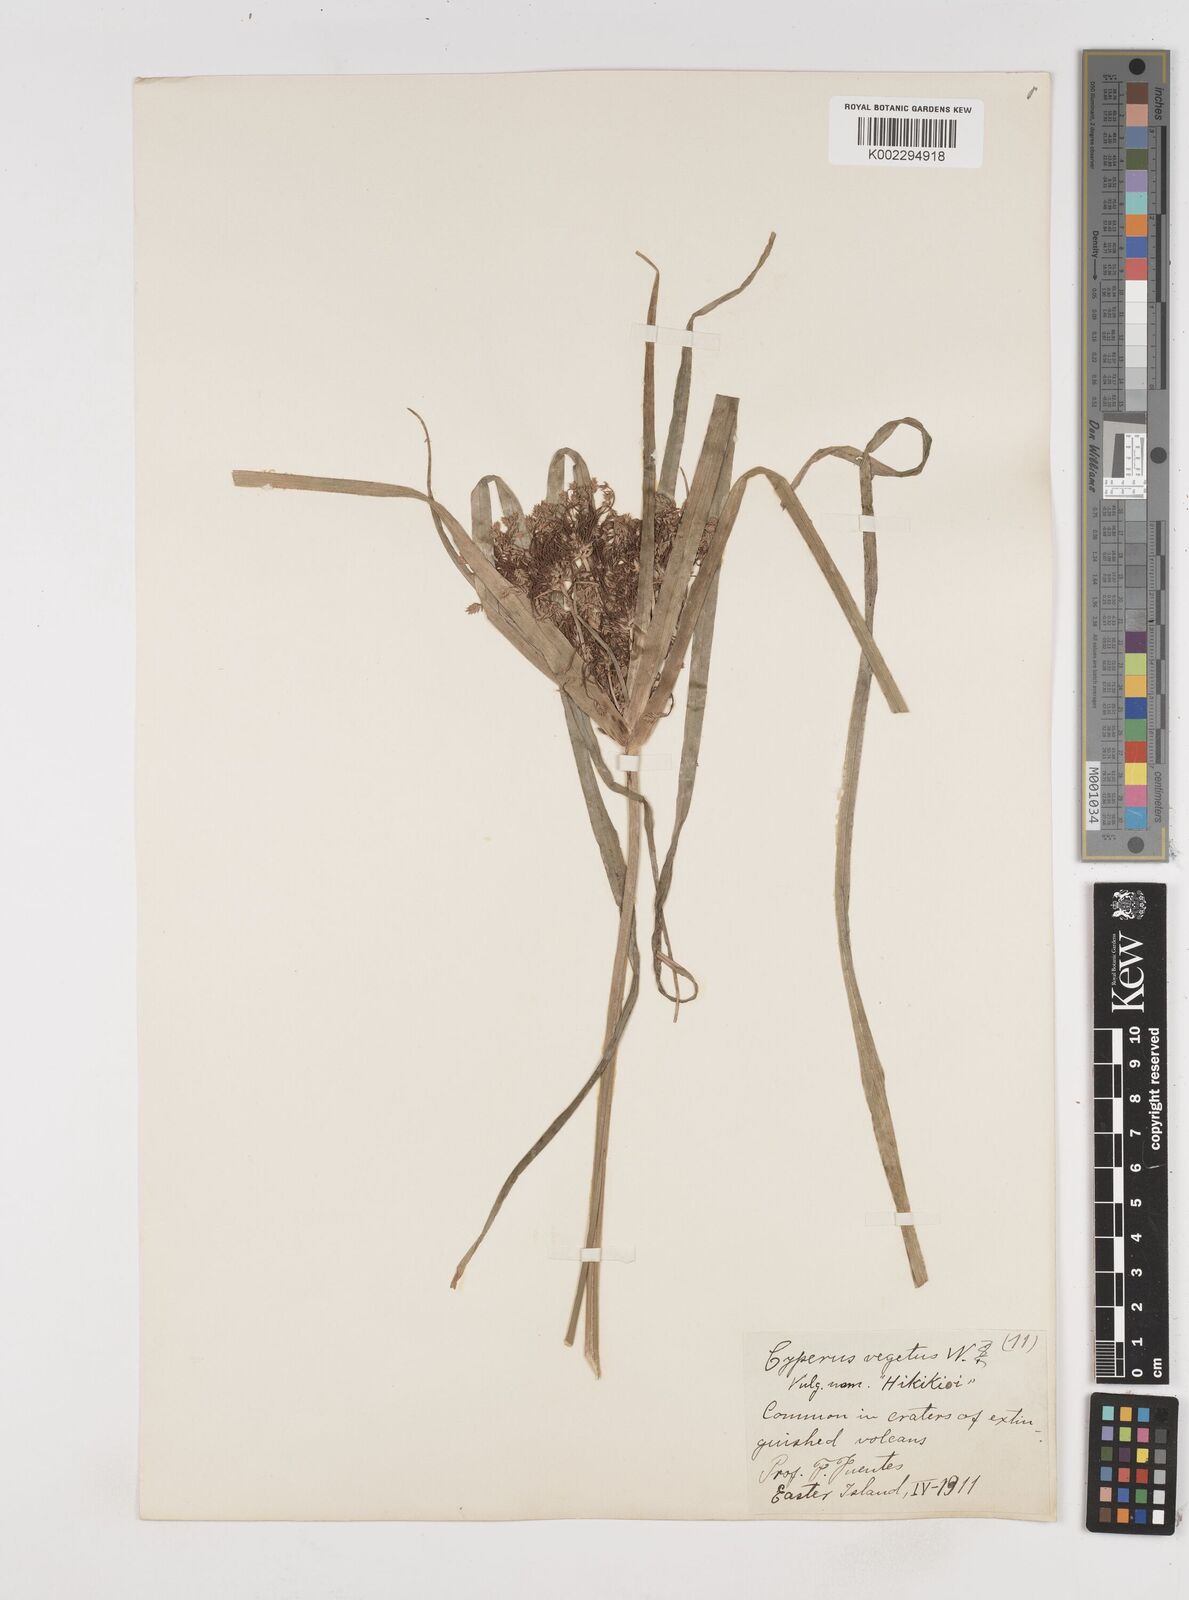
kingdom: Plantae
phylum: Tracheophyta
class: Liliopsida
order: Poales
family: Cyperaceae
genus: Cyperus
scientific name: Cyperus eragrostis
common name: Tall flatsedge
